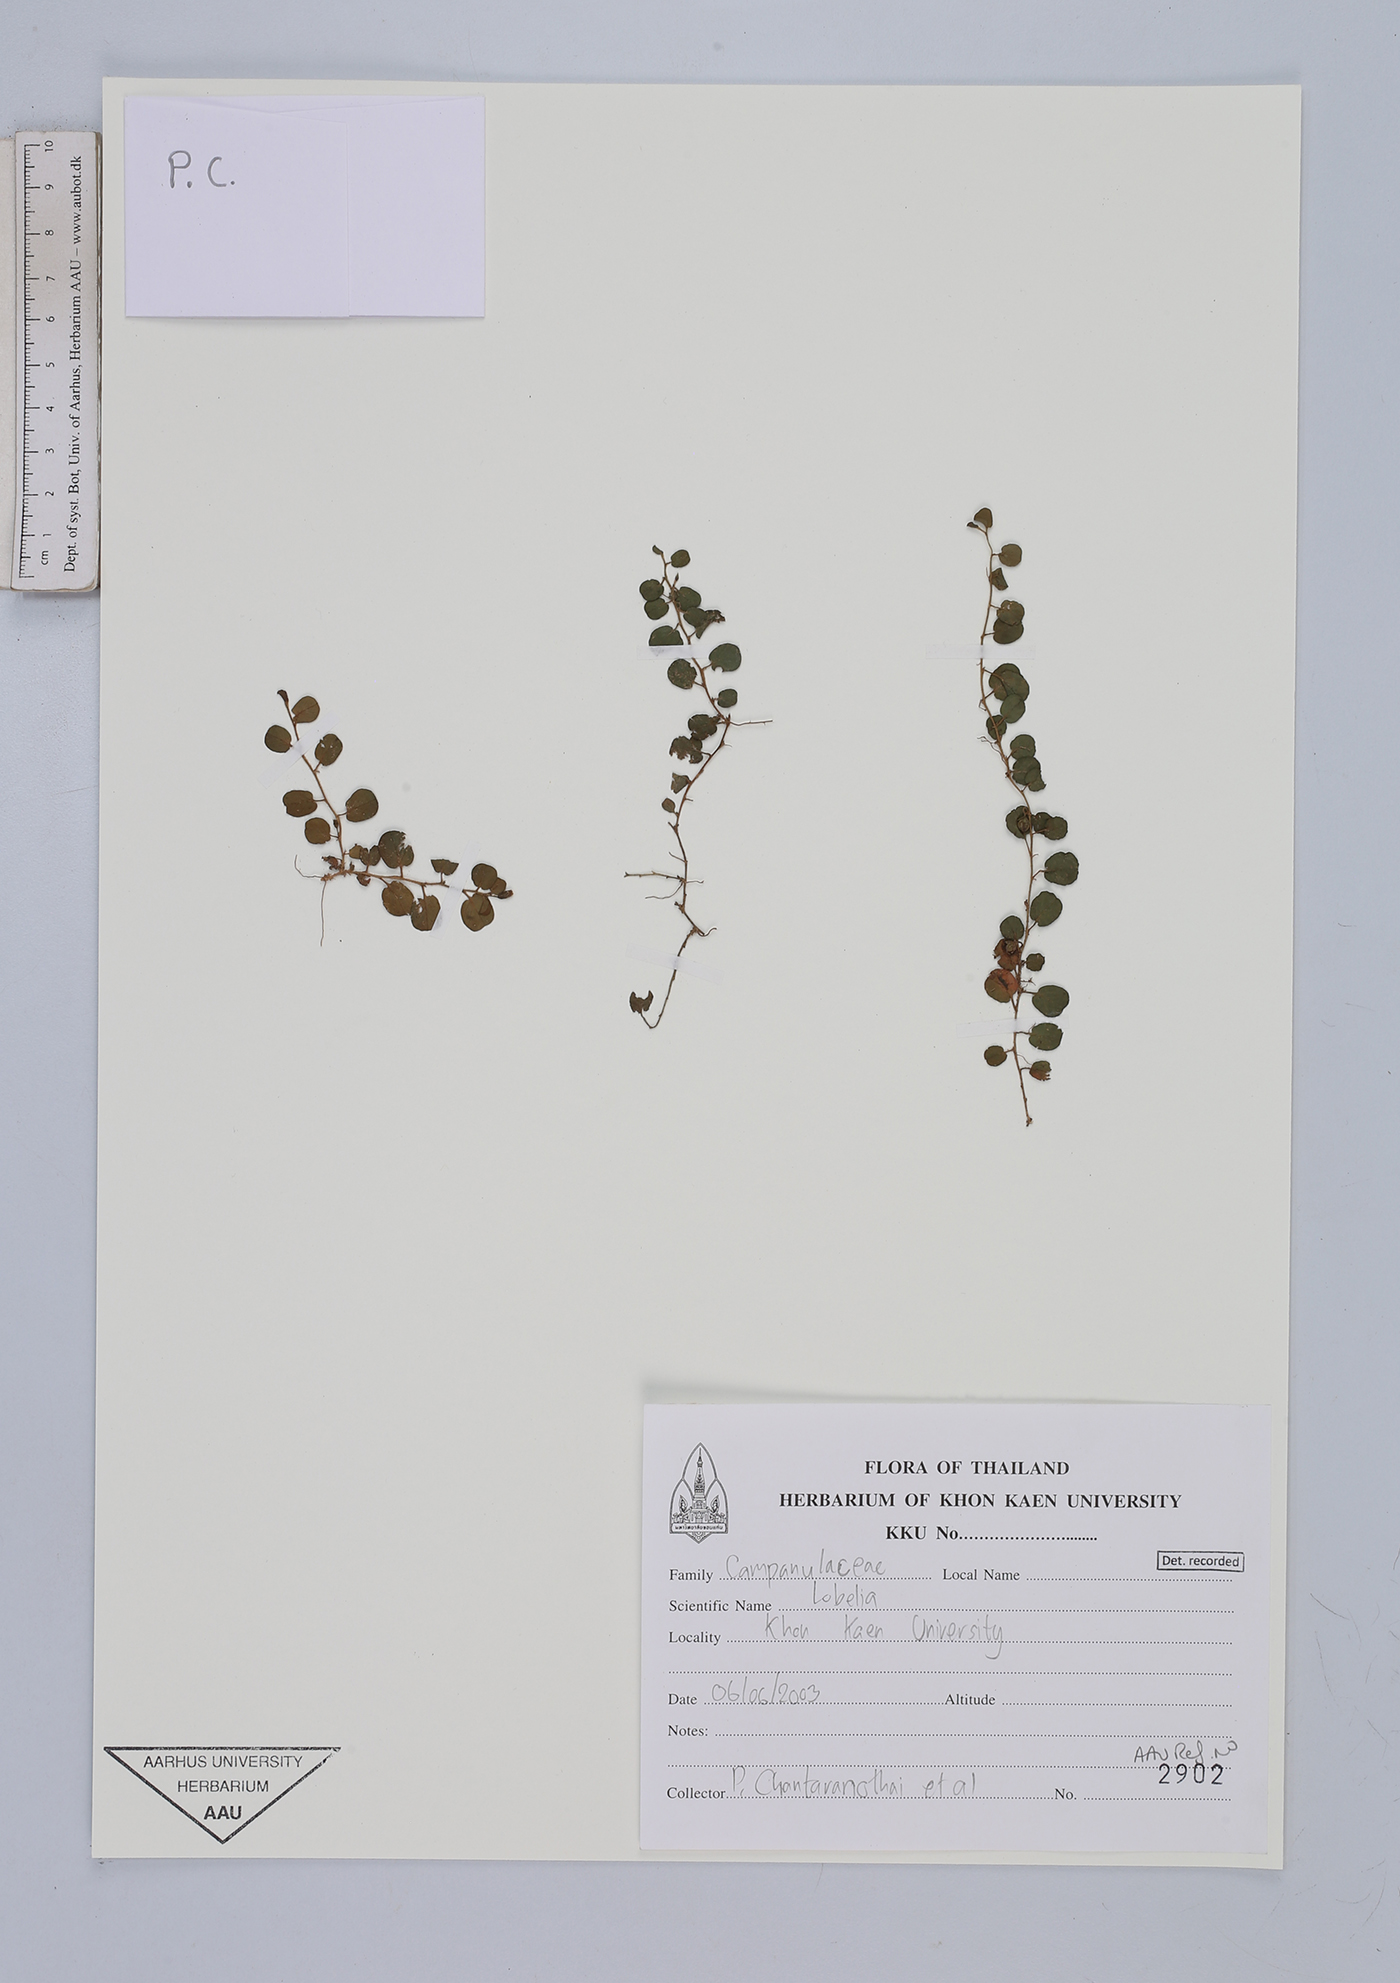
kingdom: Plantae
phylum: Tracheophyta
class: Magnoliopsida
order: Asterales
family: Campanulaceae
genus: Lobelia
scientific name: Lobelia
